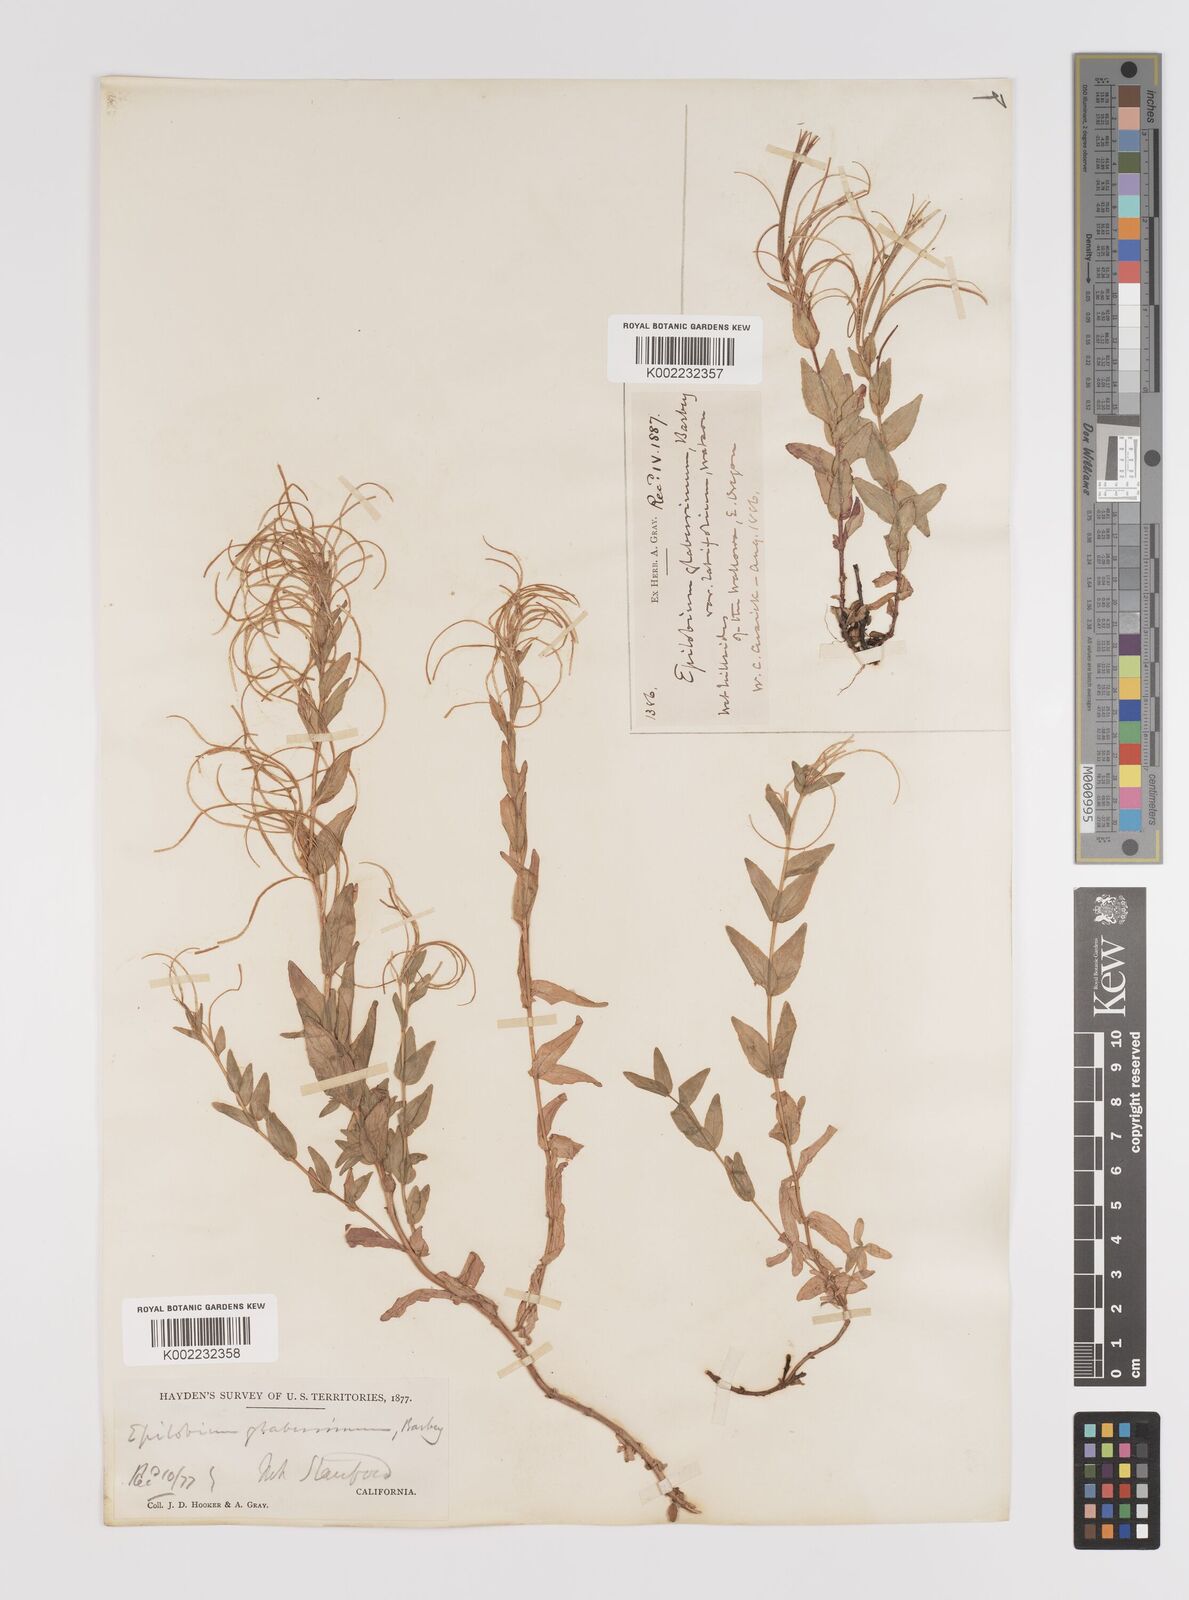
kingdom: Plantae
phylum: Tracheophyta
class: Magnoliopsida
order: Myrtales
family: Onagraceae
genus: Epilobium
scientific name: Epilobium glaberrimum
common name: Glaucous willowherb
